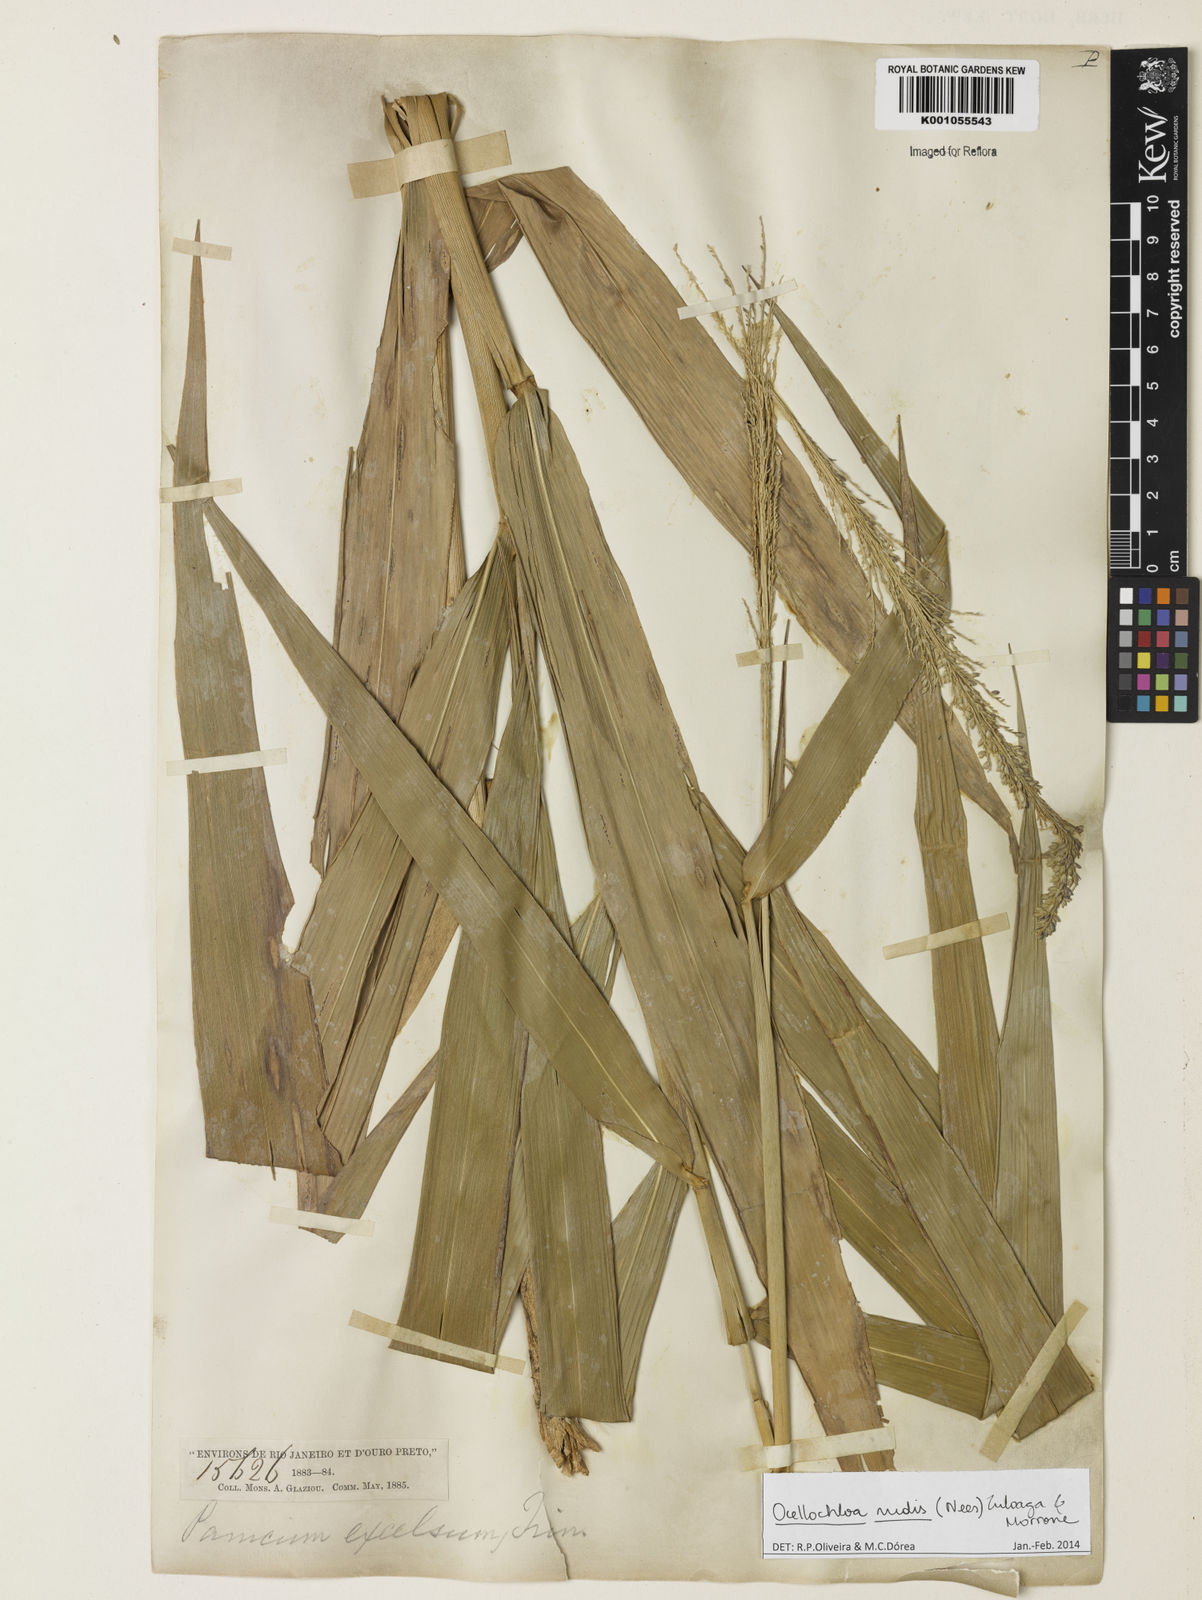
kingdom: Plantae
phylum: Tracheophyta
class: Liliopsida
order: Poales
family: Poaceae
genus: Ocellochloa
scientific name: Ocellochloa rudis
